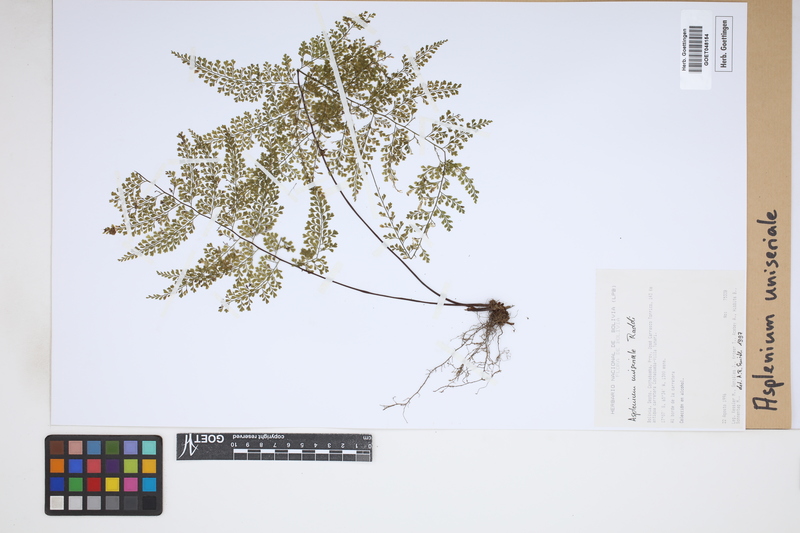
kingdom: Plantae
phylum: Tracheophyta
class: Polypodiopsida
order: Polypodiales
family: Aspleniaceae
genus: Asplenium
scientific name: Asplenium uniseriale
